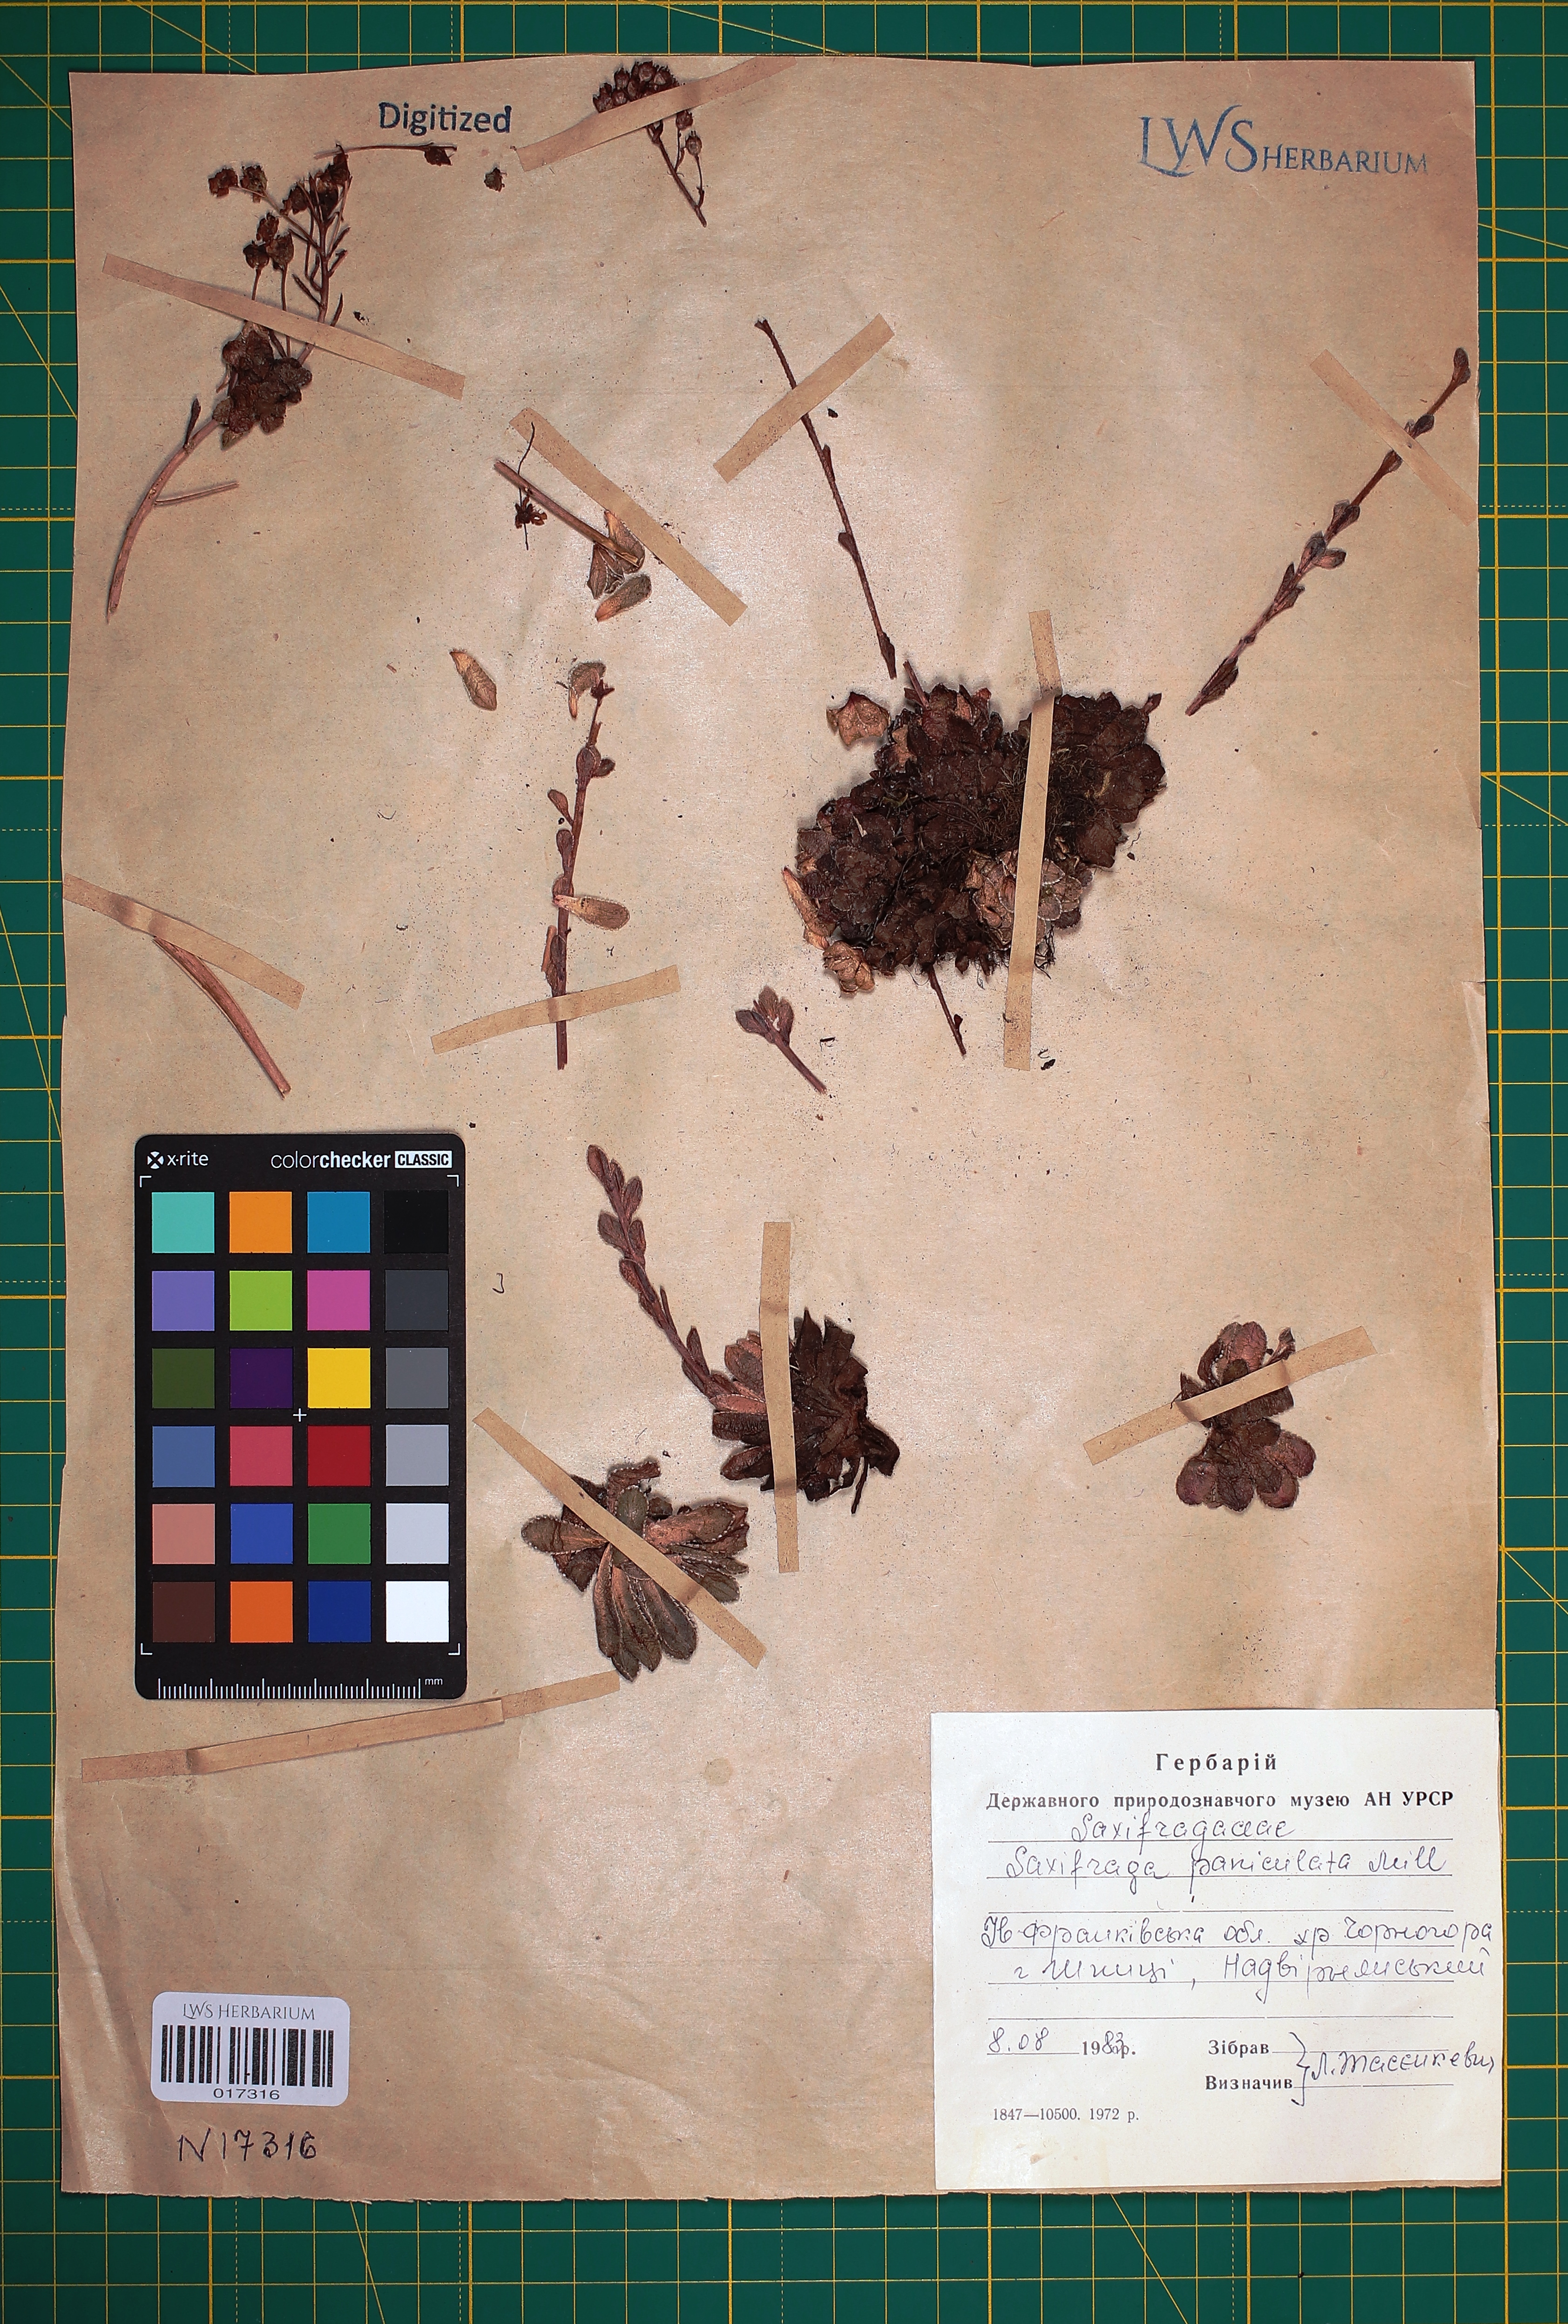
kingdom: Plantae
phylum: Tracheophyta
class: Magnoliopsida
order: Saxifragales
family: Saxifragaceae
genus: Saxifraga
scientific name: Saxifraga paniculata
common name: Livelong saxifrage
